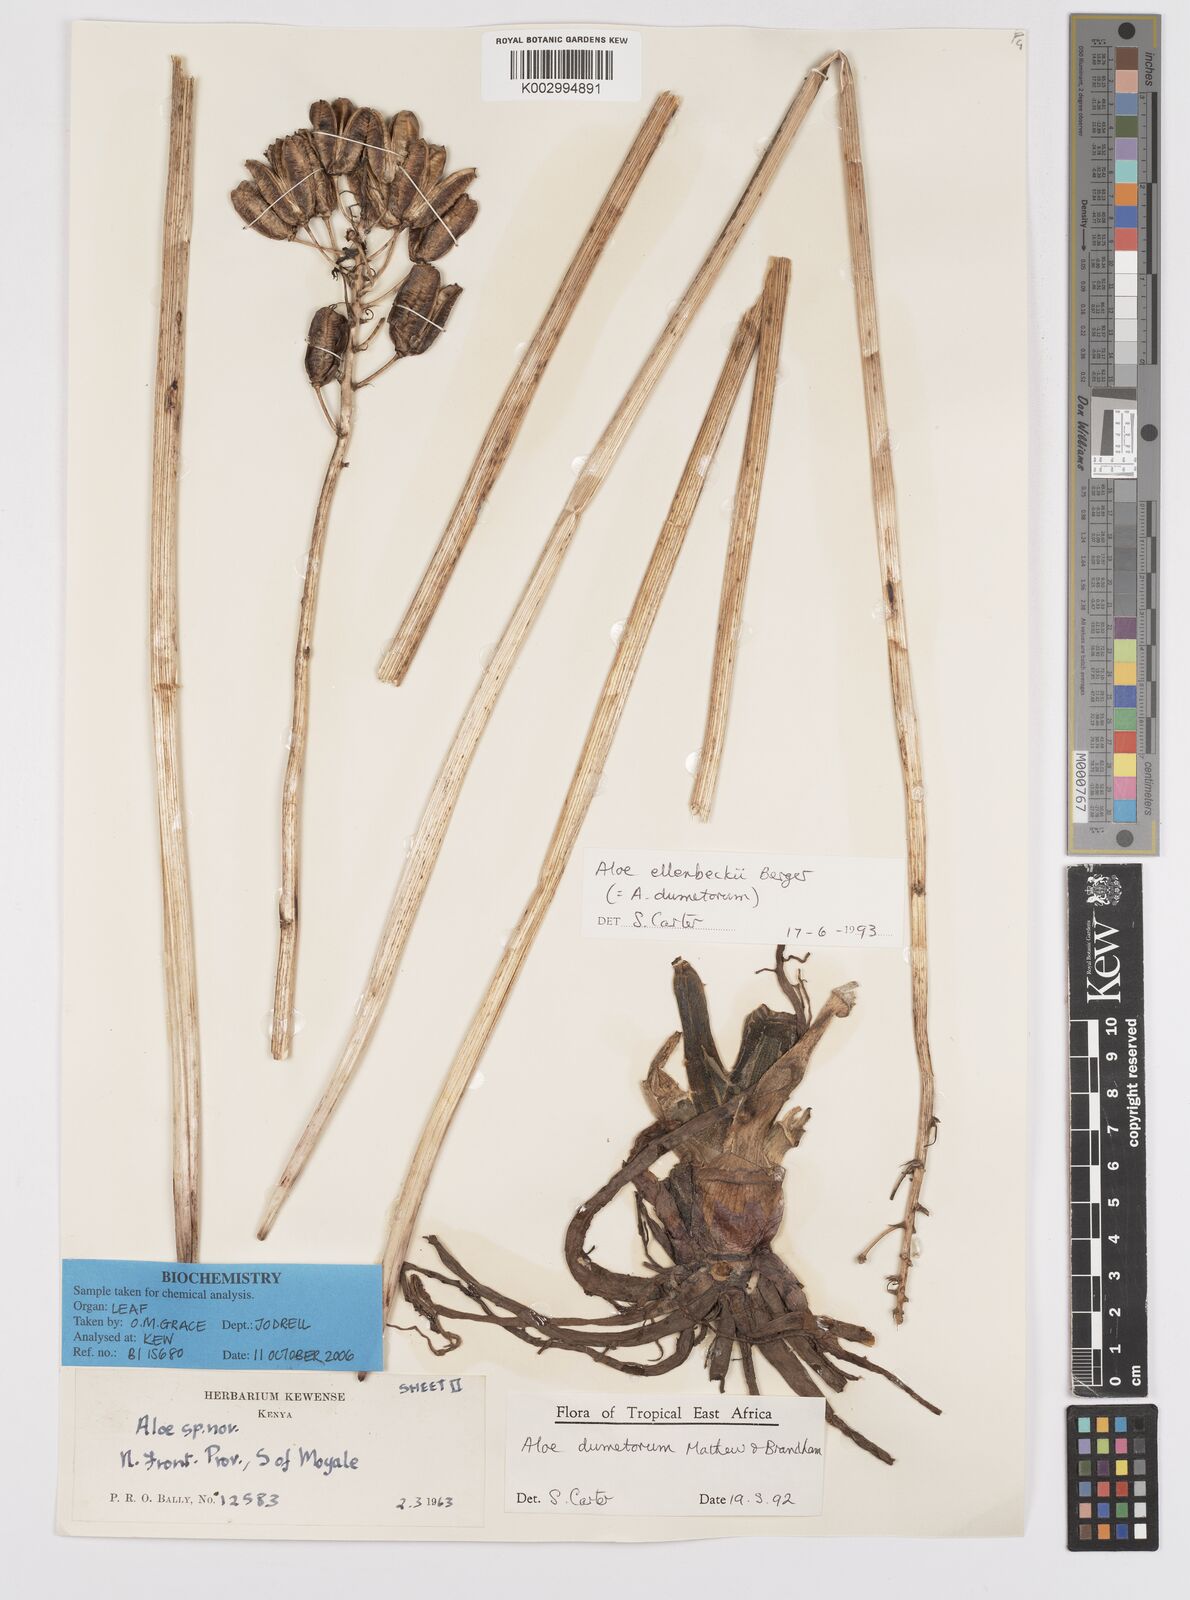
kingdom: Plantae
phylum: Tracheophyta
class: Liliopsida
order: Asparagales
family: Asphodelaceae
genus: Aloe
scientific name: Aloe ellenbeckii
